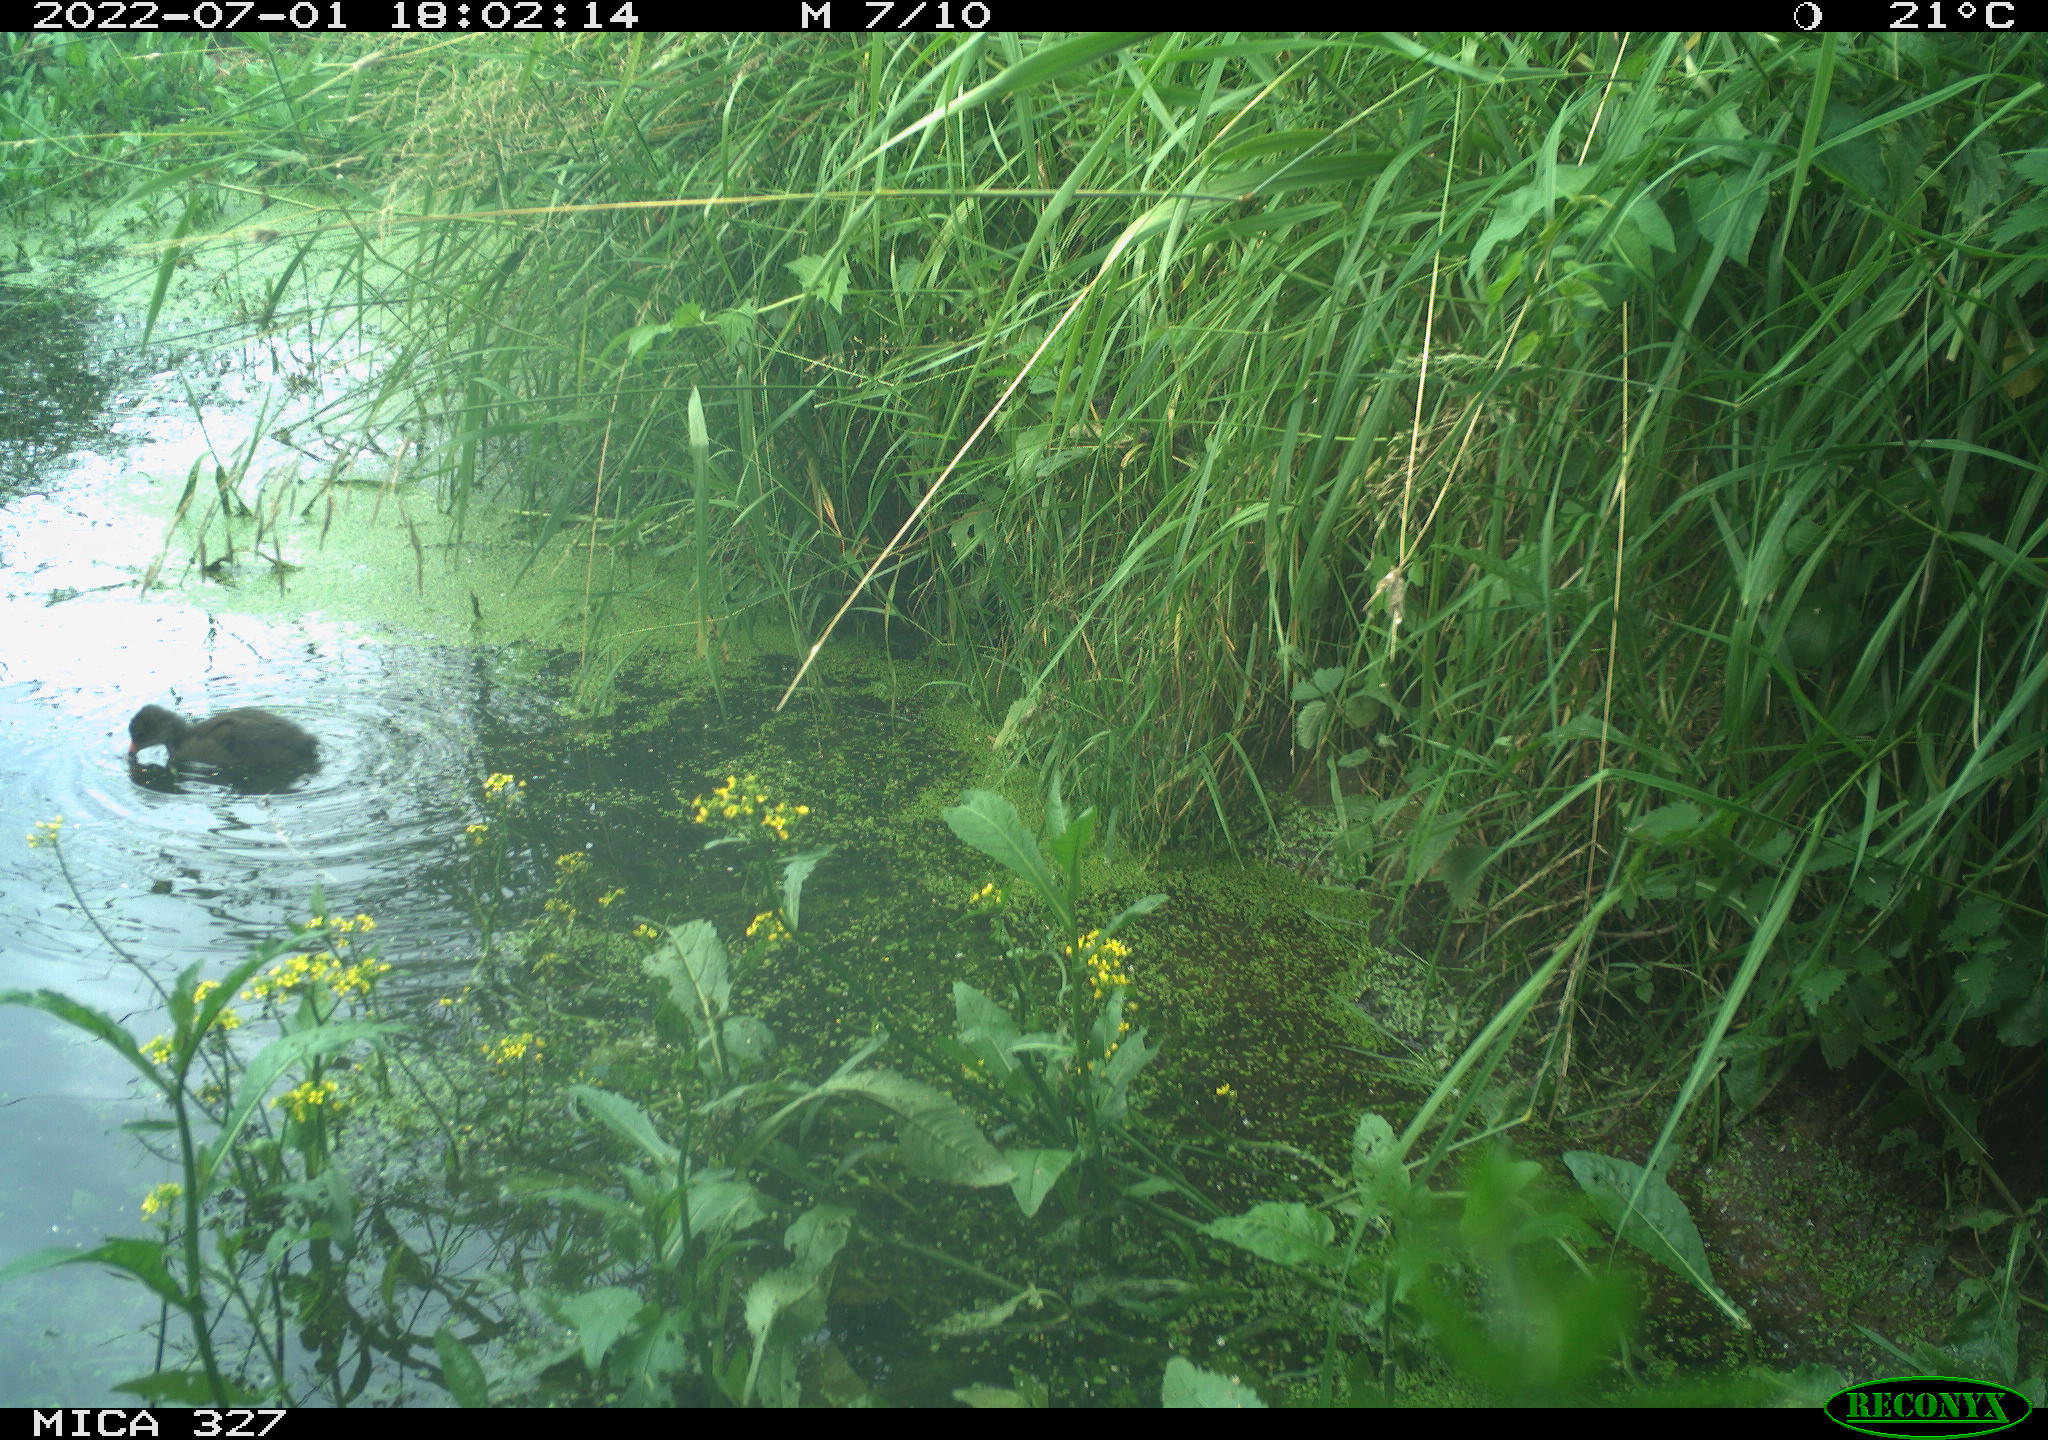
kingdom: Animalia
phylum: Chordata
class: Aves
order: Gruiformes
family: Rallidae
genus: Gallinula
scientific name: Gallinula chloropus
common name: Common moorhen
